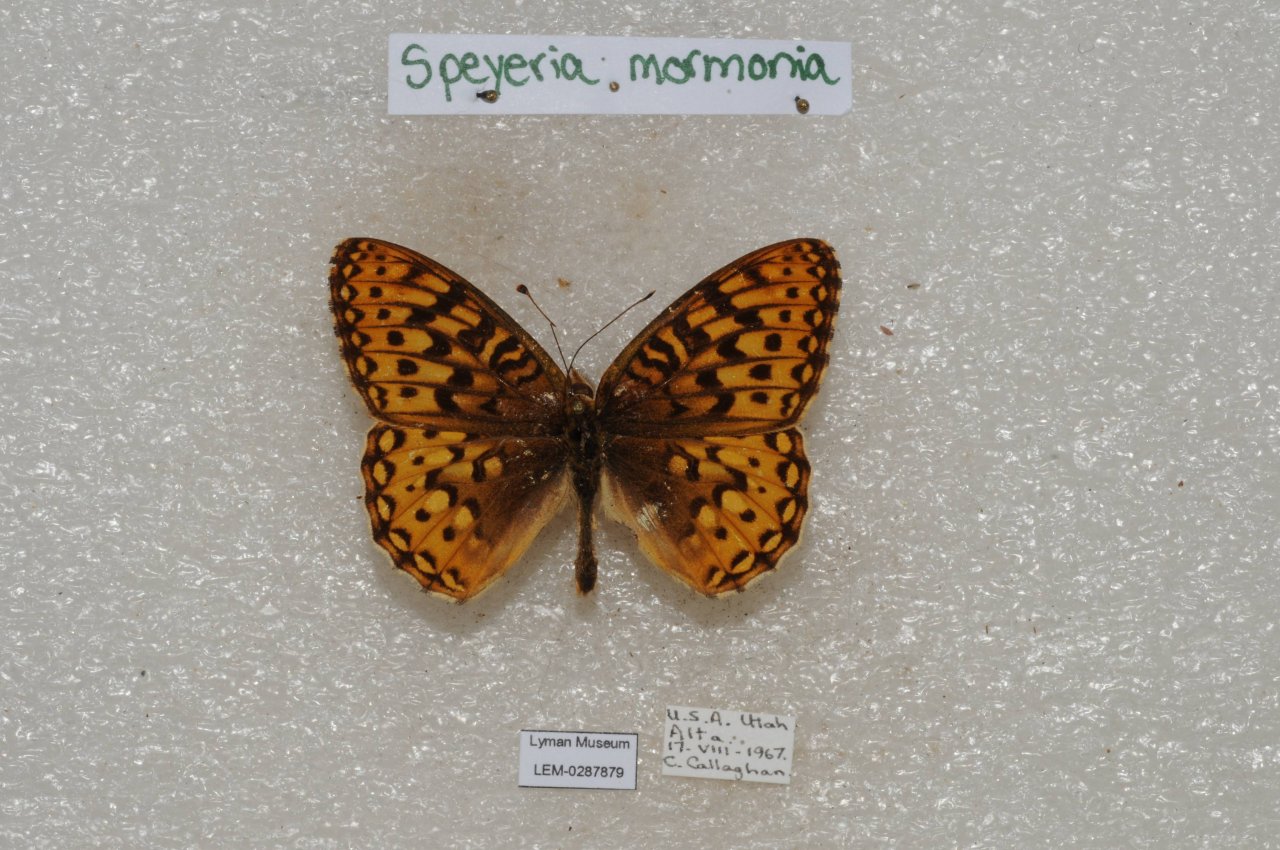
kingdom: Animalia
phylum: Arthropoda
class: Insecta
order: Lepidoptera
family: Nymphalidae
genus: Speyeria
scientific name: Speyeria mormonia
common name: Mormon Fritillary
